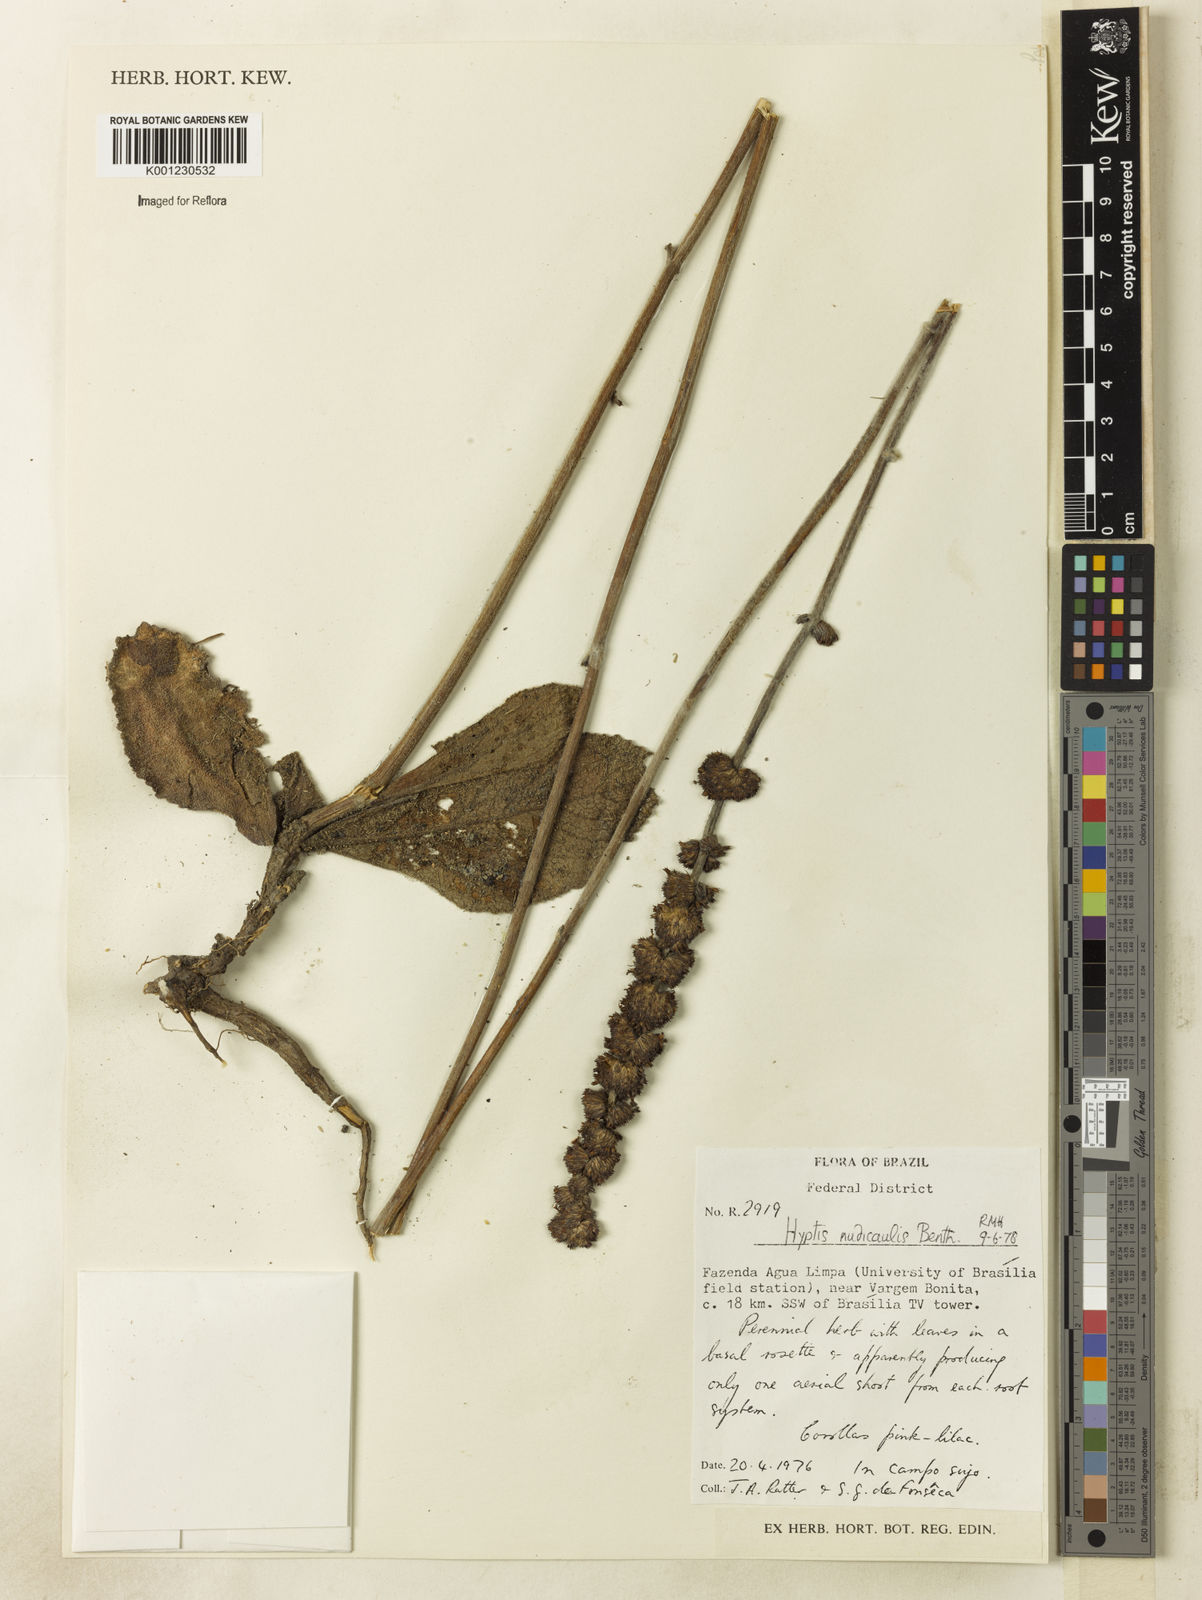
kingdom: Plantae
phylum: Tracheophyta
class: Magnoliopsida
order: Lamiales
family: Lamiaceae
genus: Hyptis
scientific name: Hyptis nudicaulis
